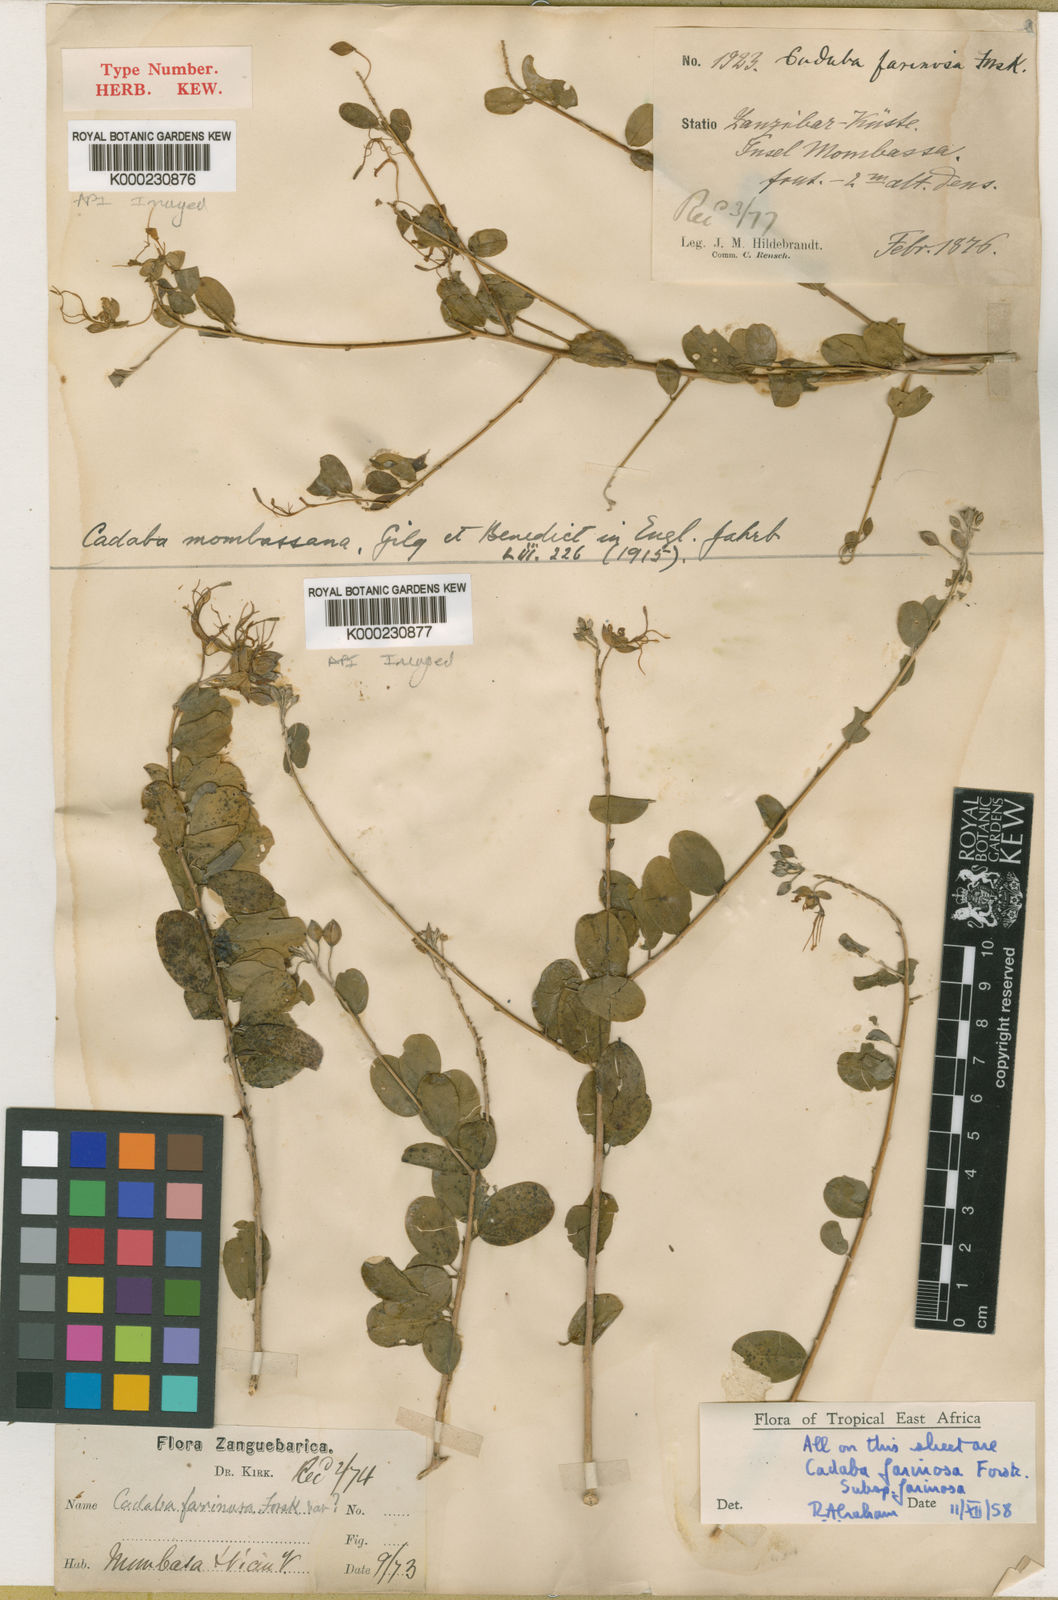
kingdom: Plantae
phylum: Tracheophyta
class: Magnoliopsida
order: Brassicales
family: Capparaceae
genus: Cadaba
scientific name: Cadaba farinosa
